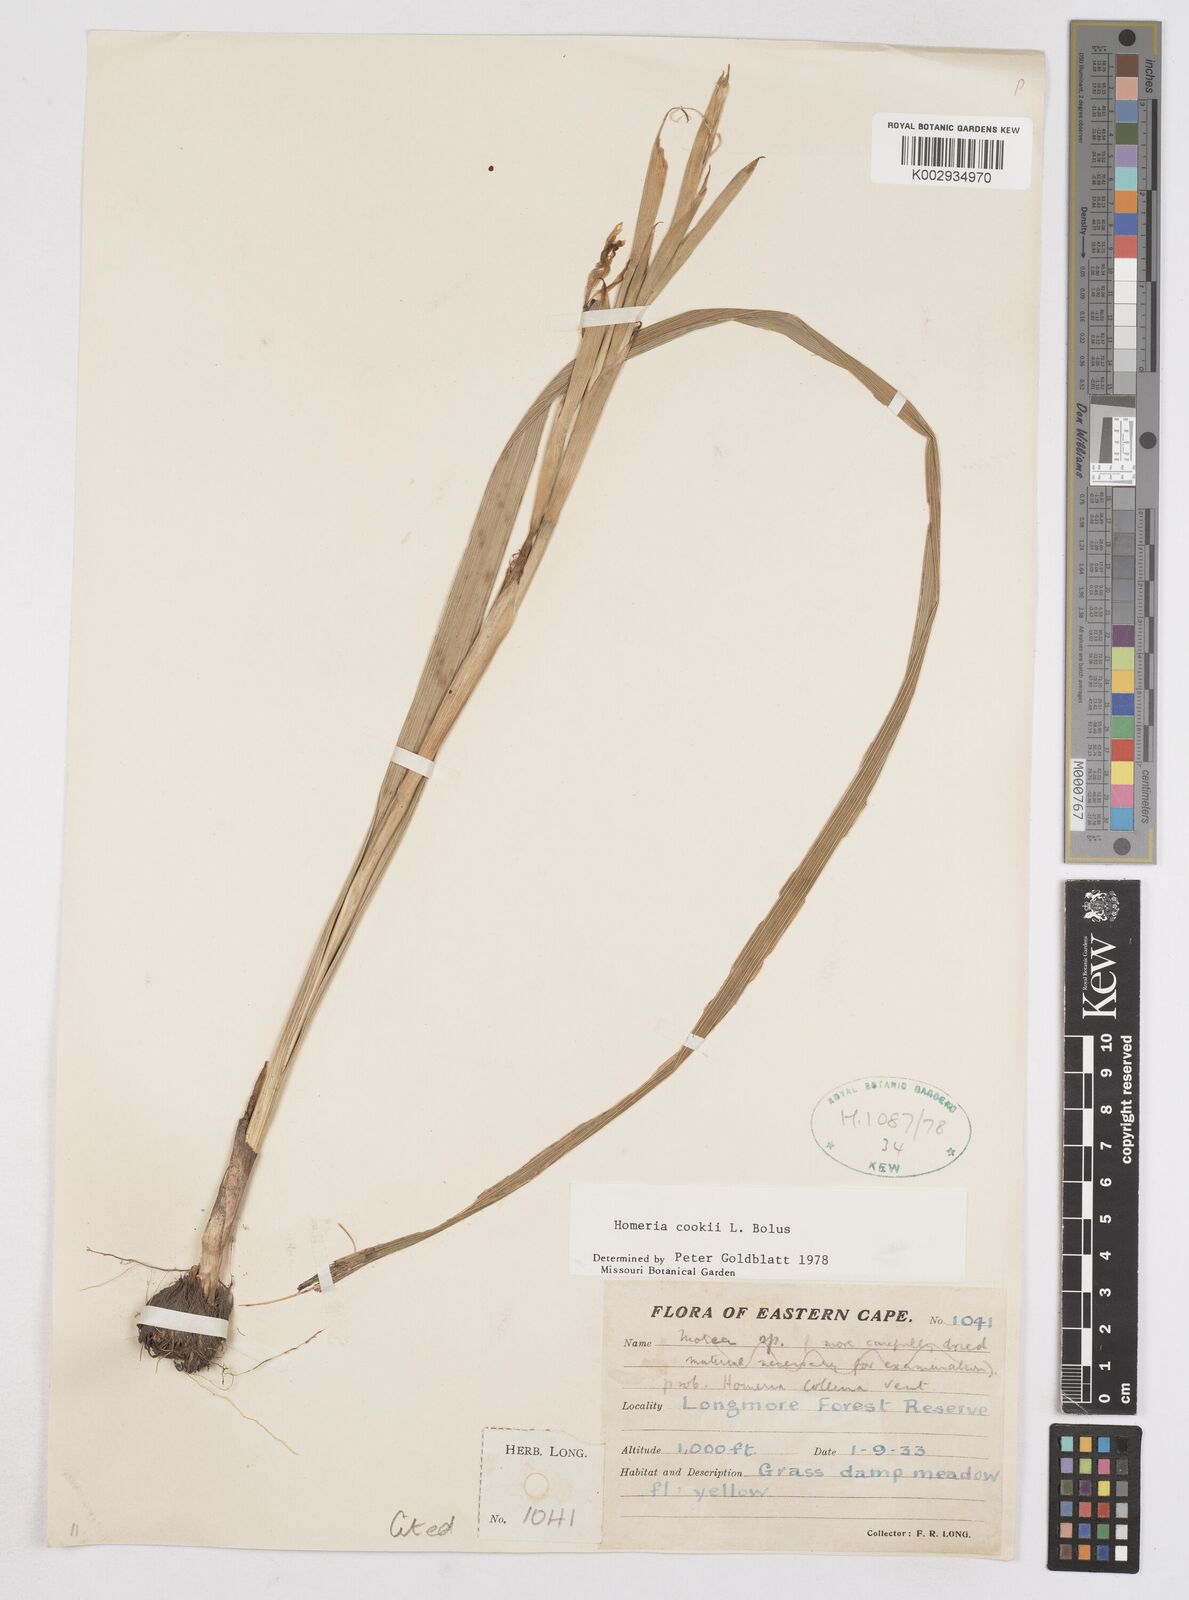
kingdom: Plantae
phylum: Tracheophyta
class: Liliopsida
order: Asparagales
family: Iridaceae
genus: Moraea
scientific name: Moraea cookii
